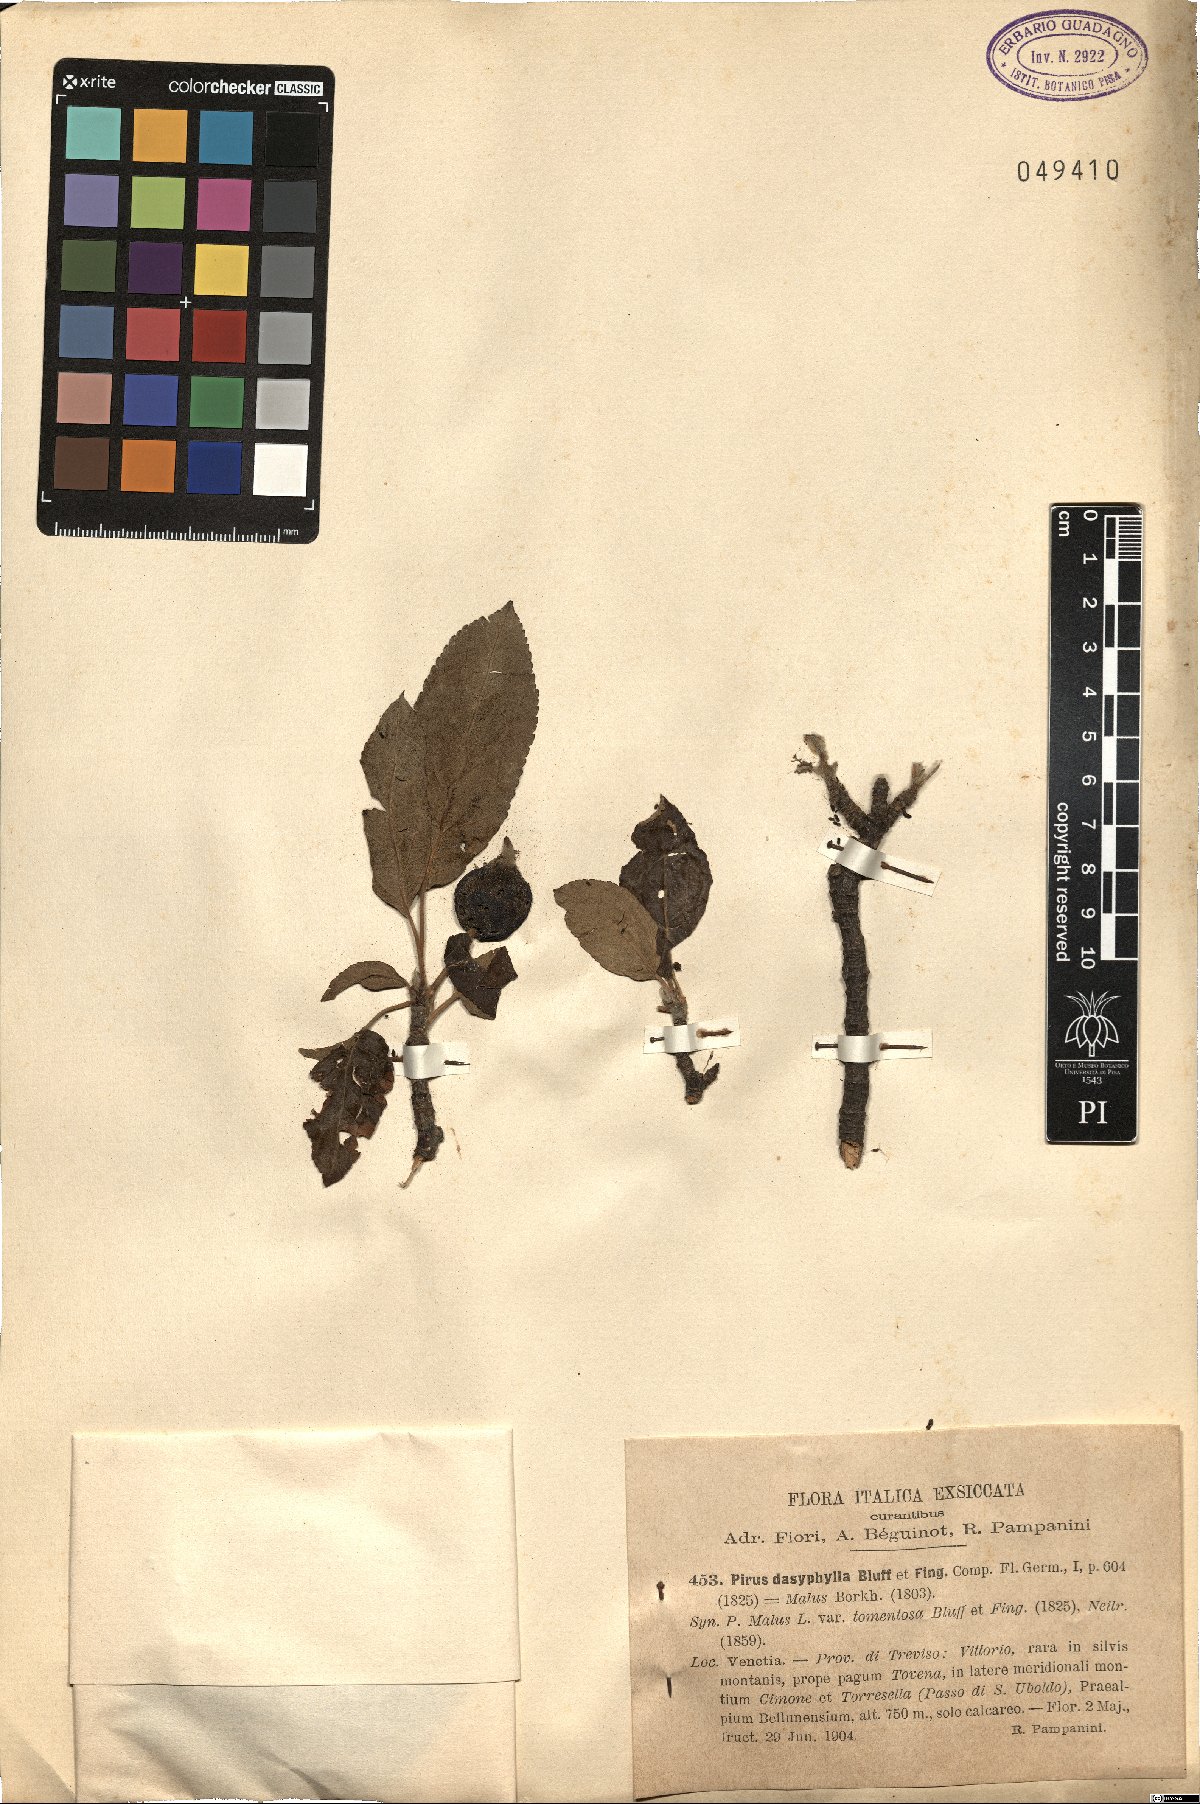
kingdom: Plantae
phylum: Tracheophyta
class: Magnoliopsida
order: Rosales
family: Rosaceae
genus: Malus
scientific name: Malus dasyphylla
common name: Paradise apple
